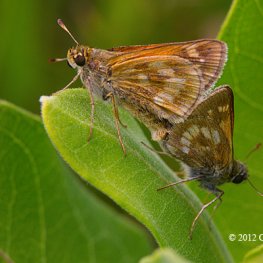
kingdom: Animalia
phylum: Arthropoda
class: Insecta
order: Lepidoptera
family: Hesperiidae
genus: Polites
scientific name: Polites
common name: Long Dash Skipper
